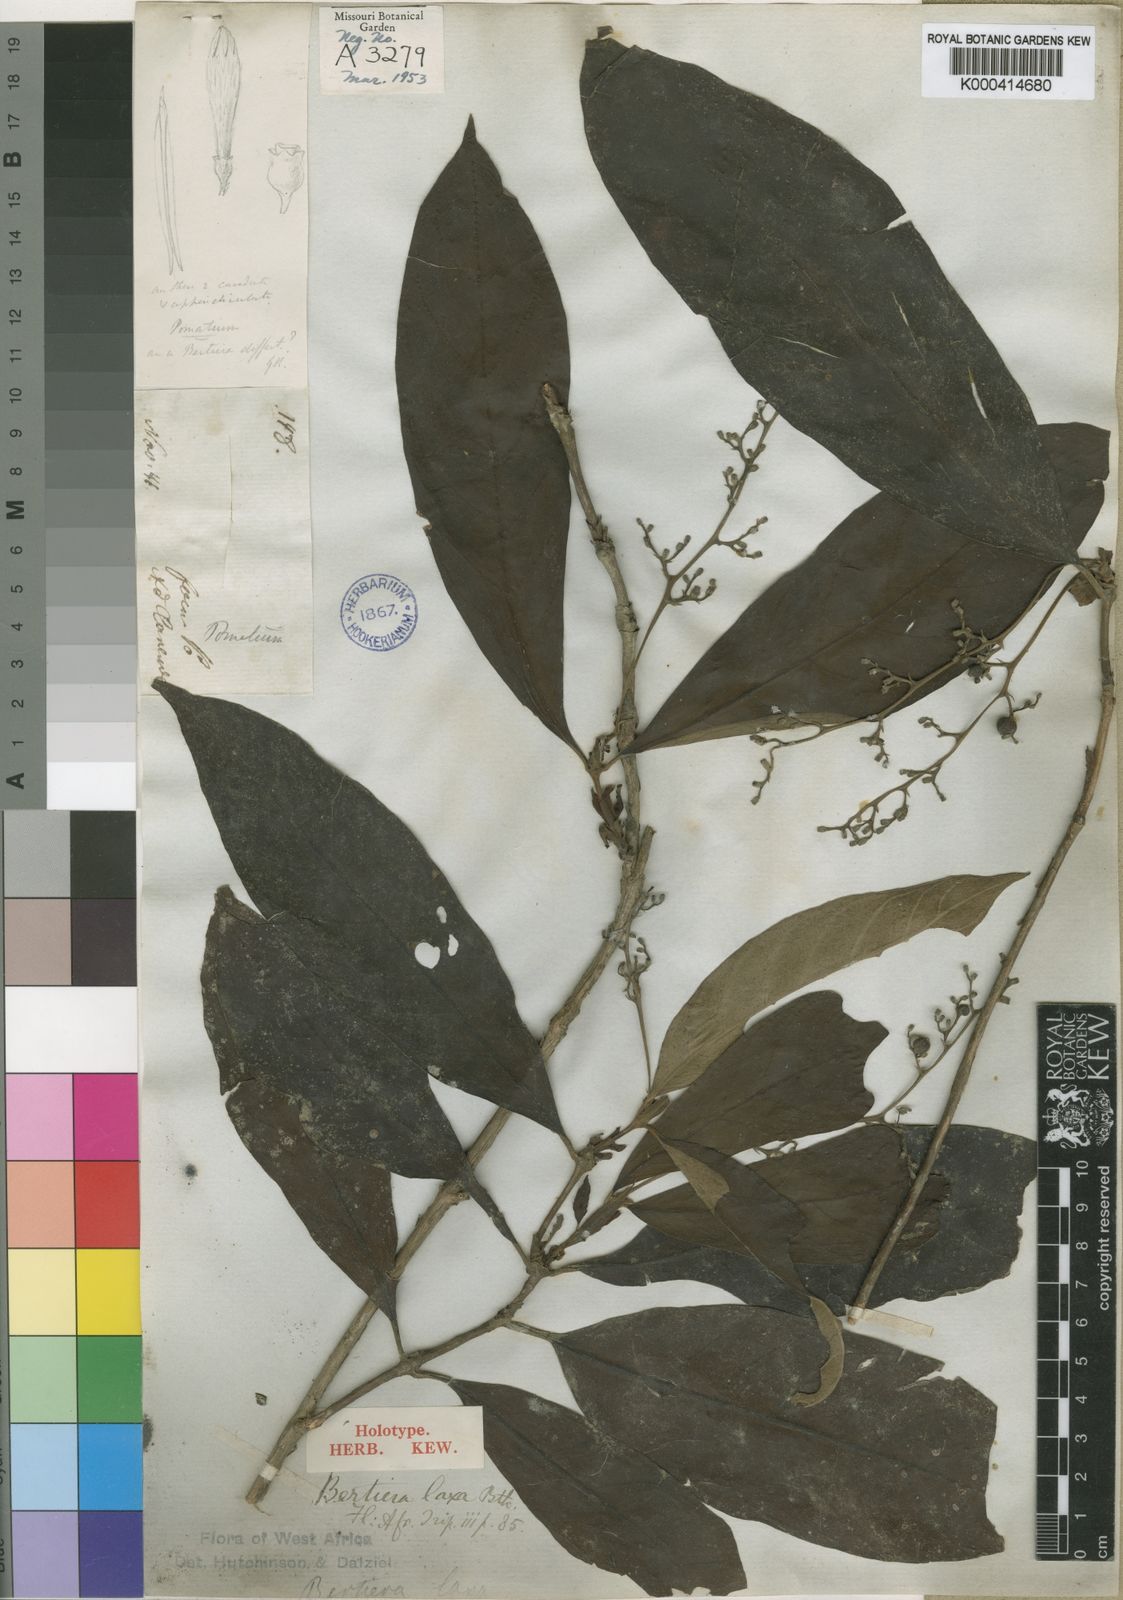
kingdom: Plantae
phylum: Tracheophyta
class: Magnoliopsida
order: Gentianales
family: Rubiaceae
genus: Bertiera
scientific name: Bertiera laxa
